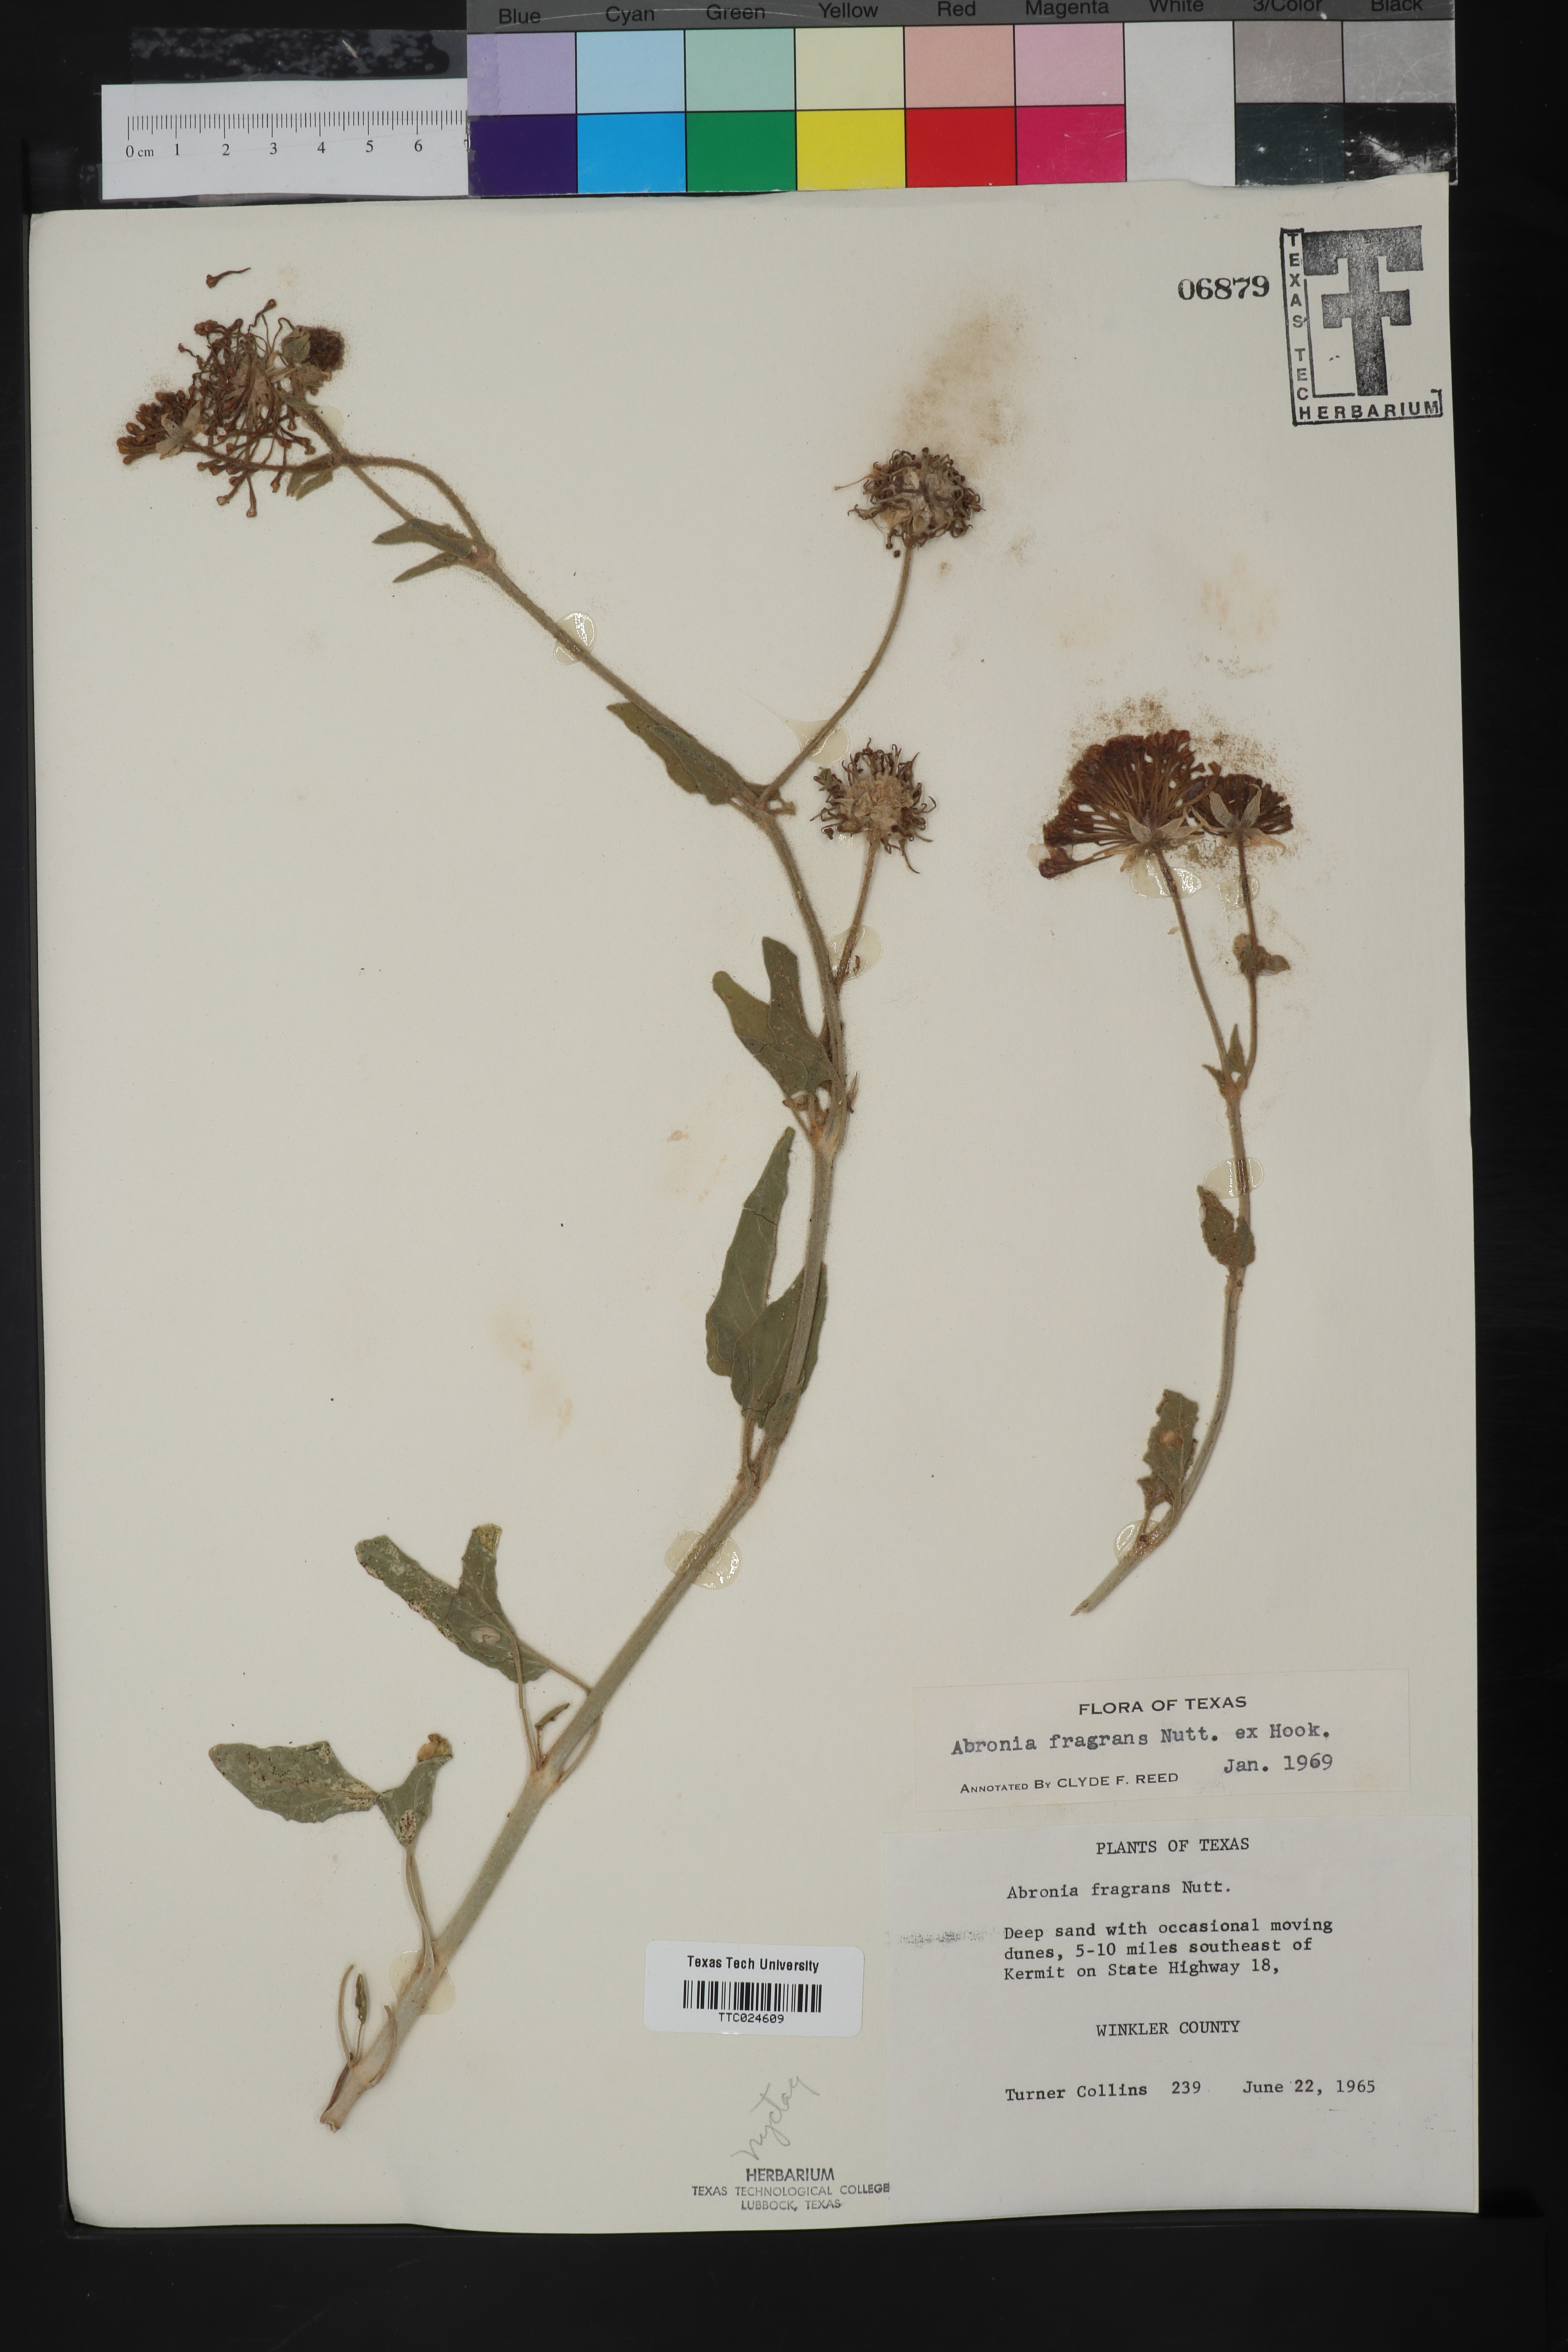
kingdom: Plantae
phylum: Tracheophyta
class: Magnoliopsida
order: Caryophyllales
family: Nyctaginaceae
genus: Abronia
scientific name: Abronia fragrans
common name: Fragrant sand-verbena
